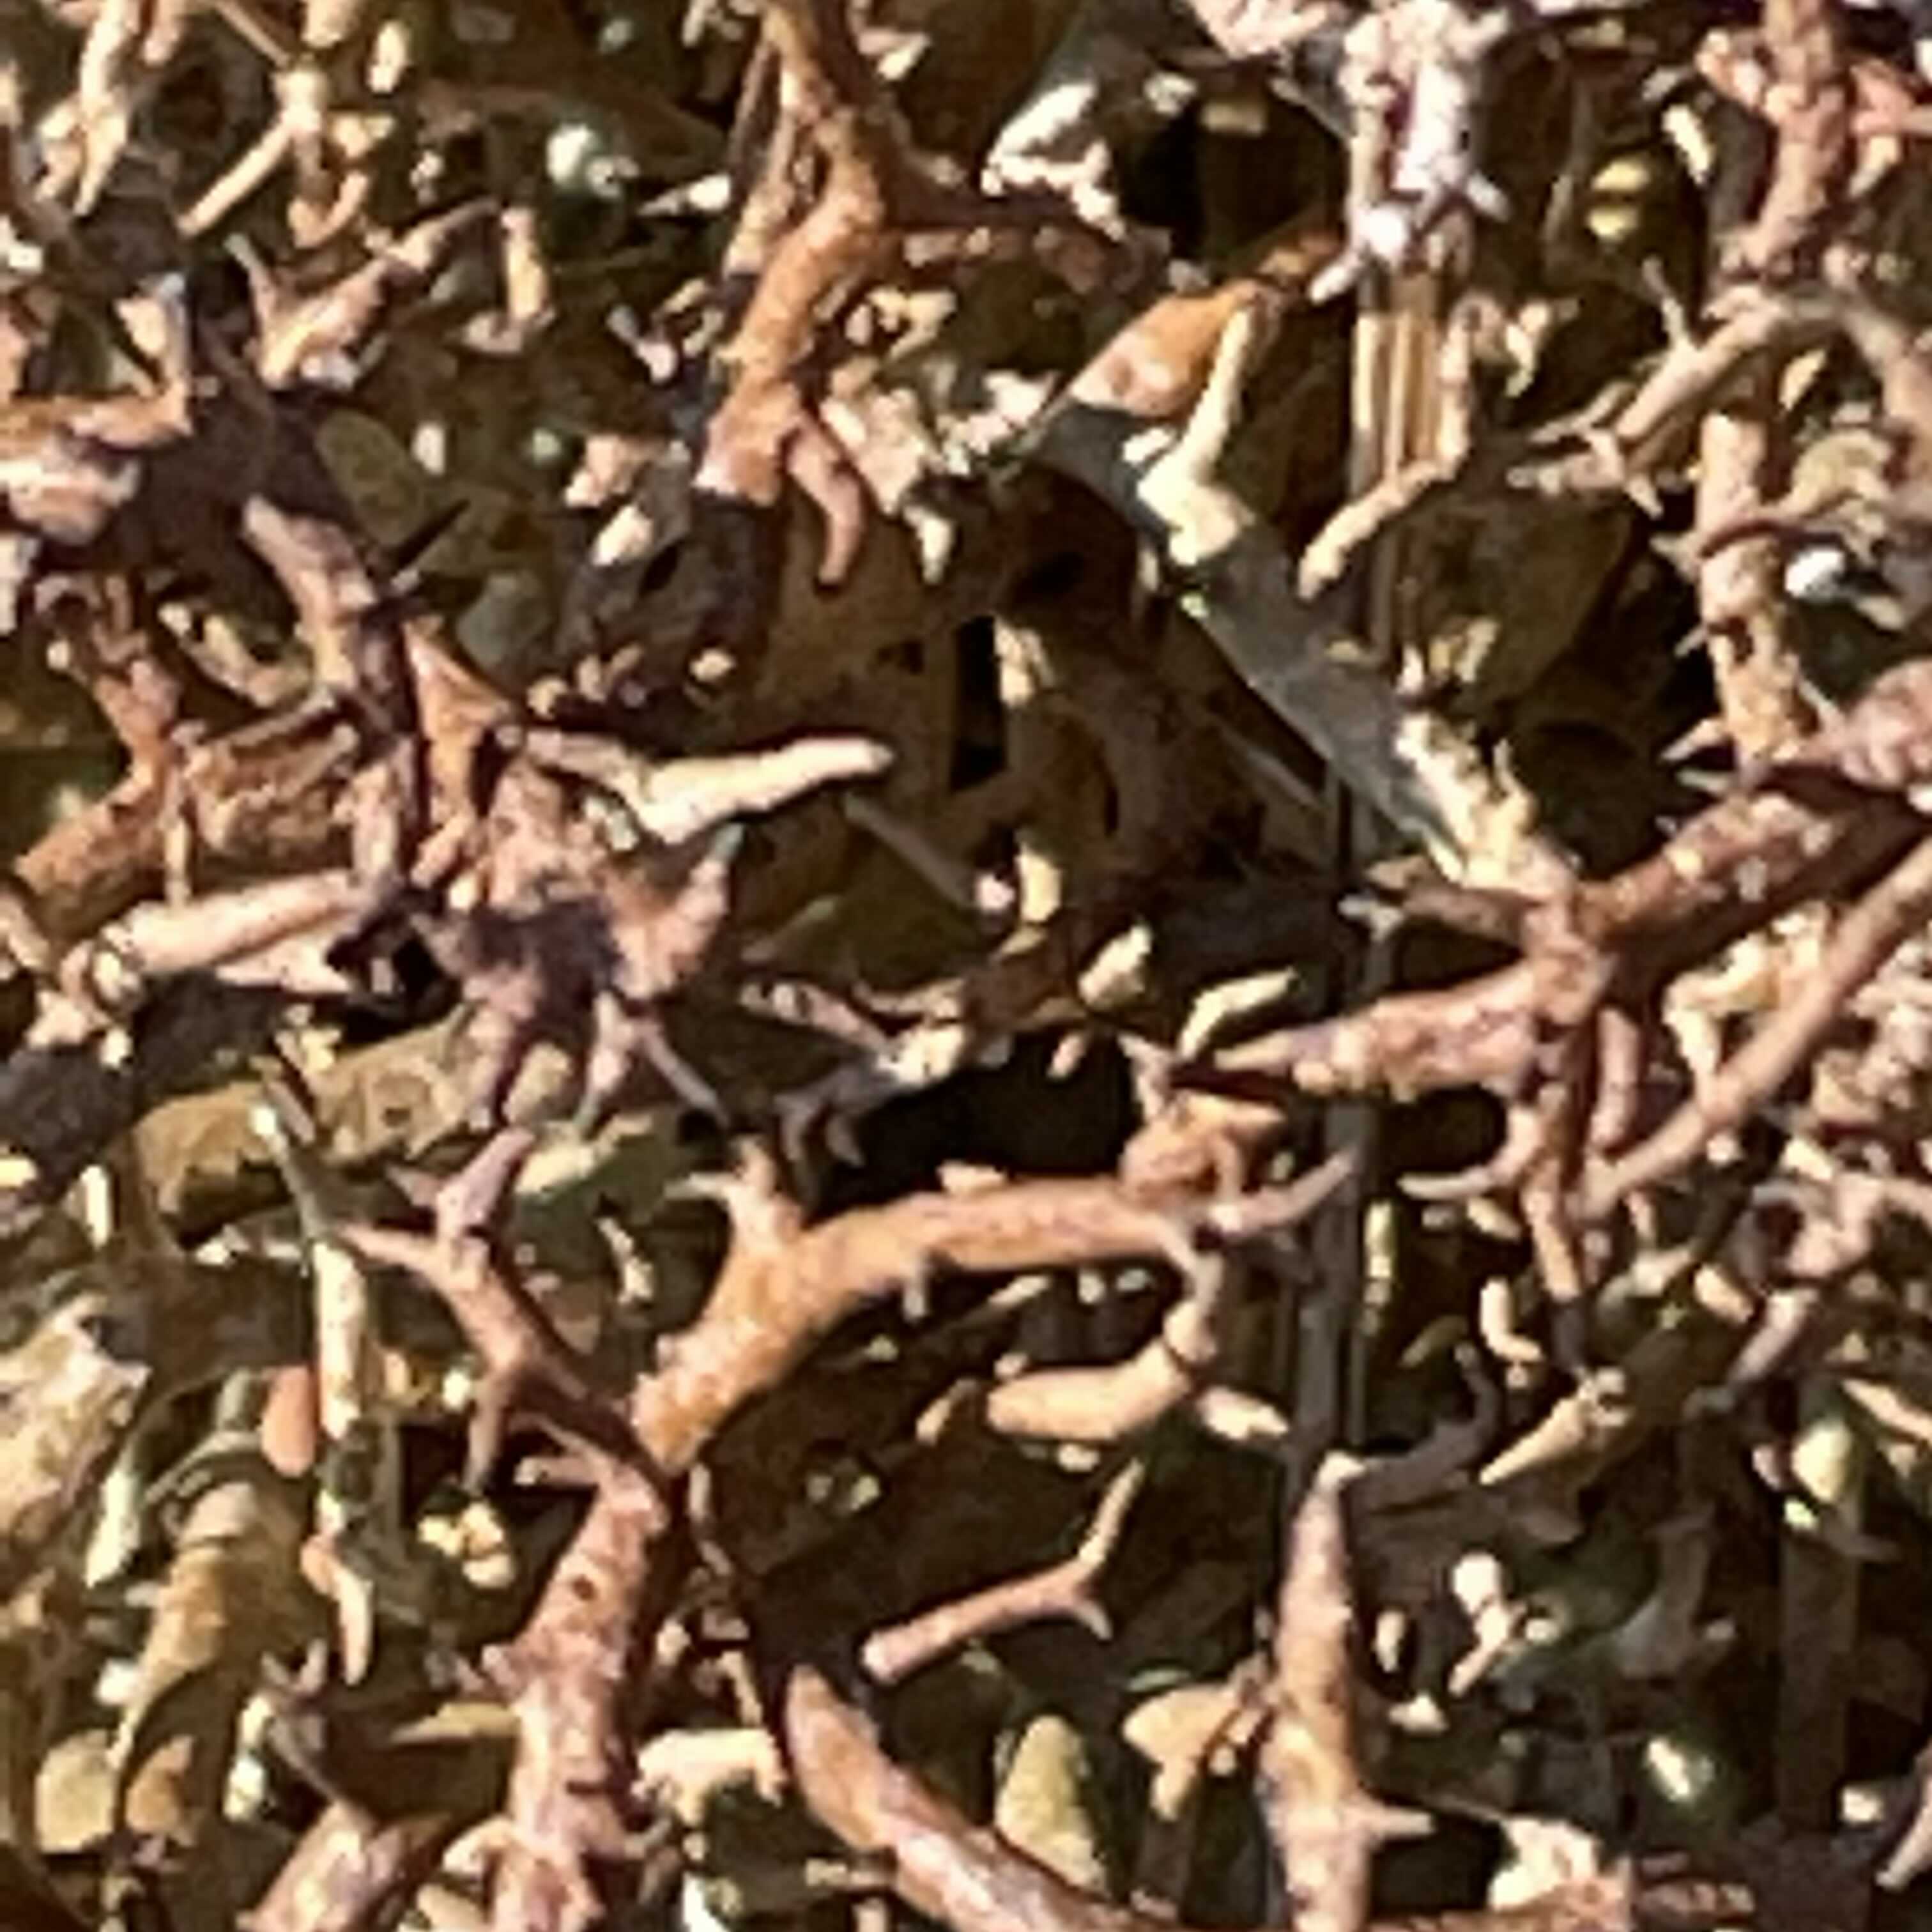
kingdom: Fungi
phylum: Ascomycota
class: Lecanoromycetes
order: Lecanorales
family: Cladoniaceae
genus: Cladonia
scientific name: Cladonia furcata
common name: kløftet bægerlav
